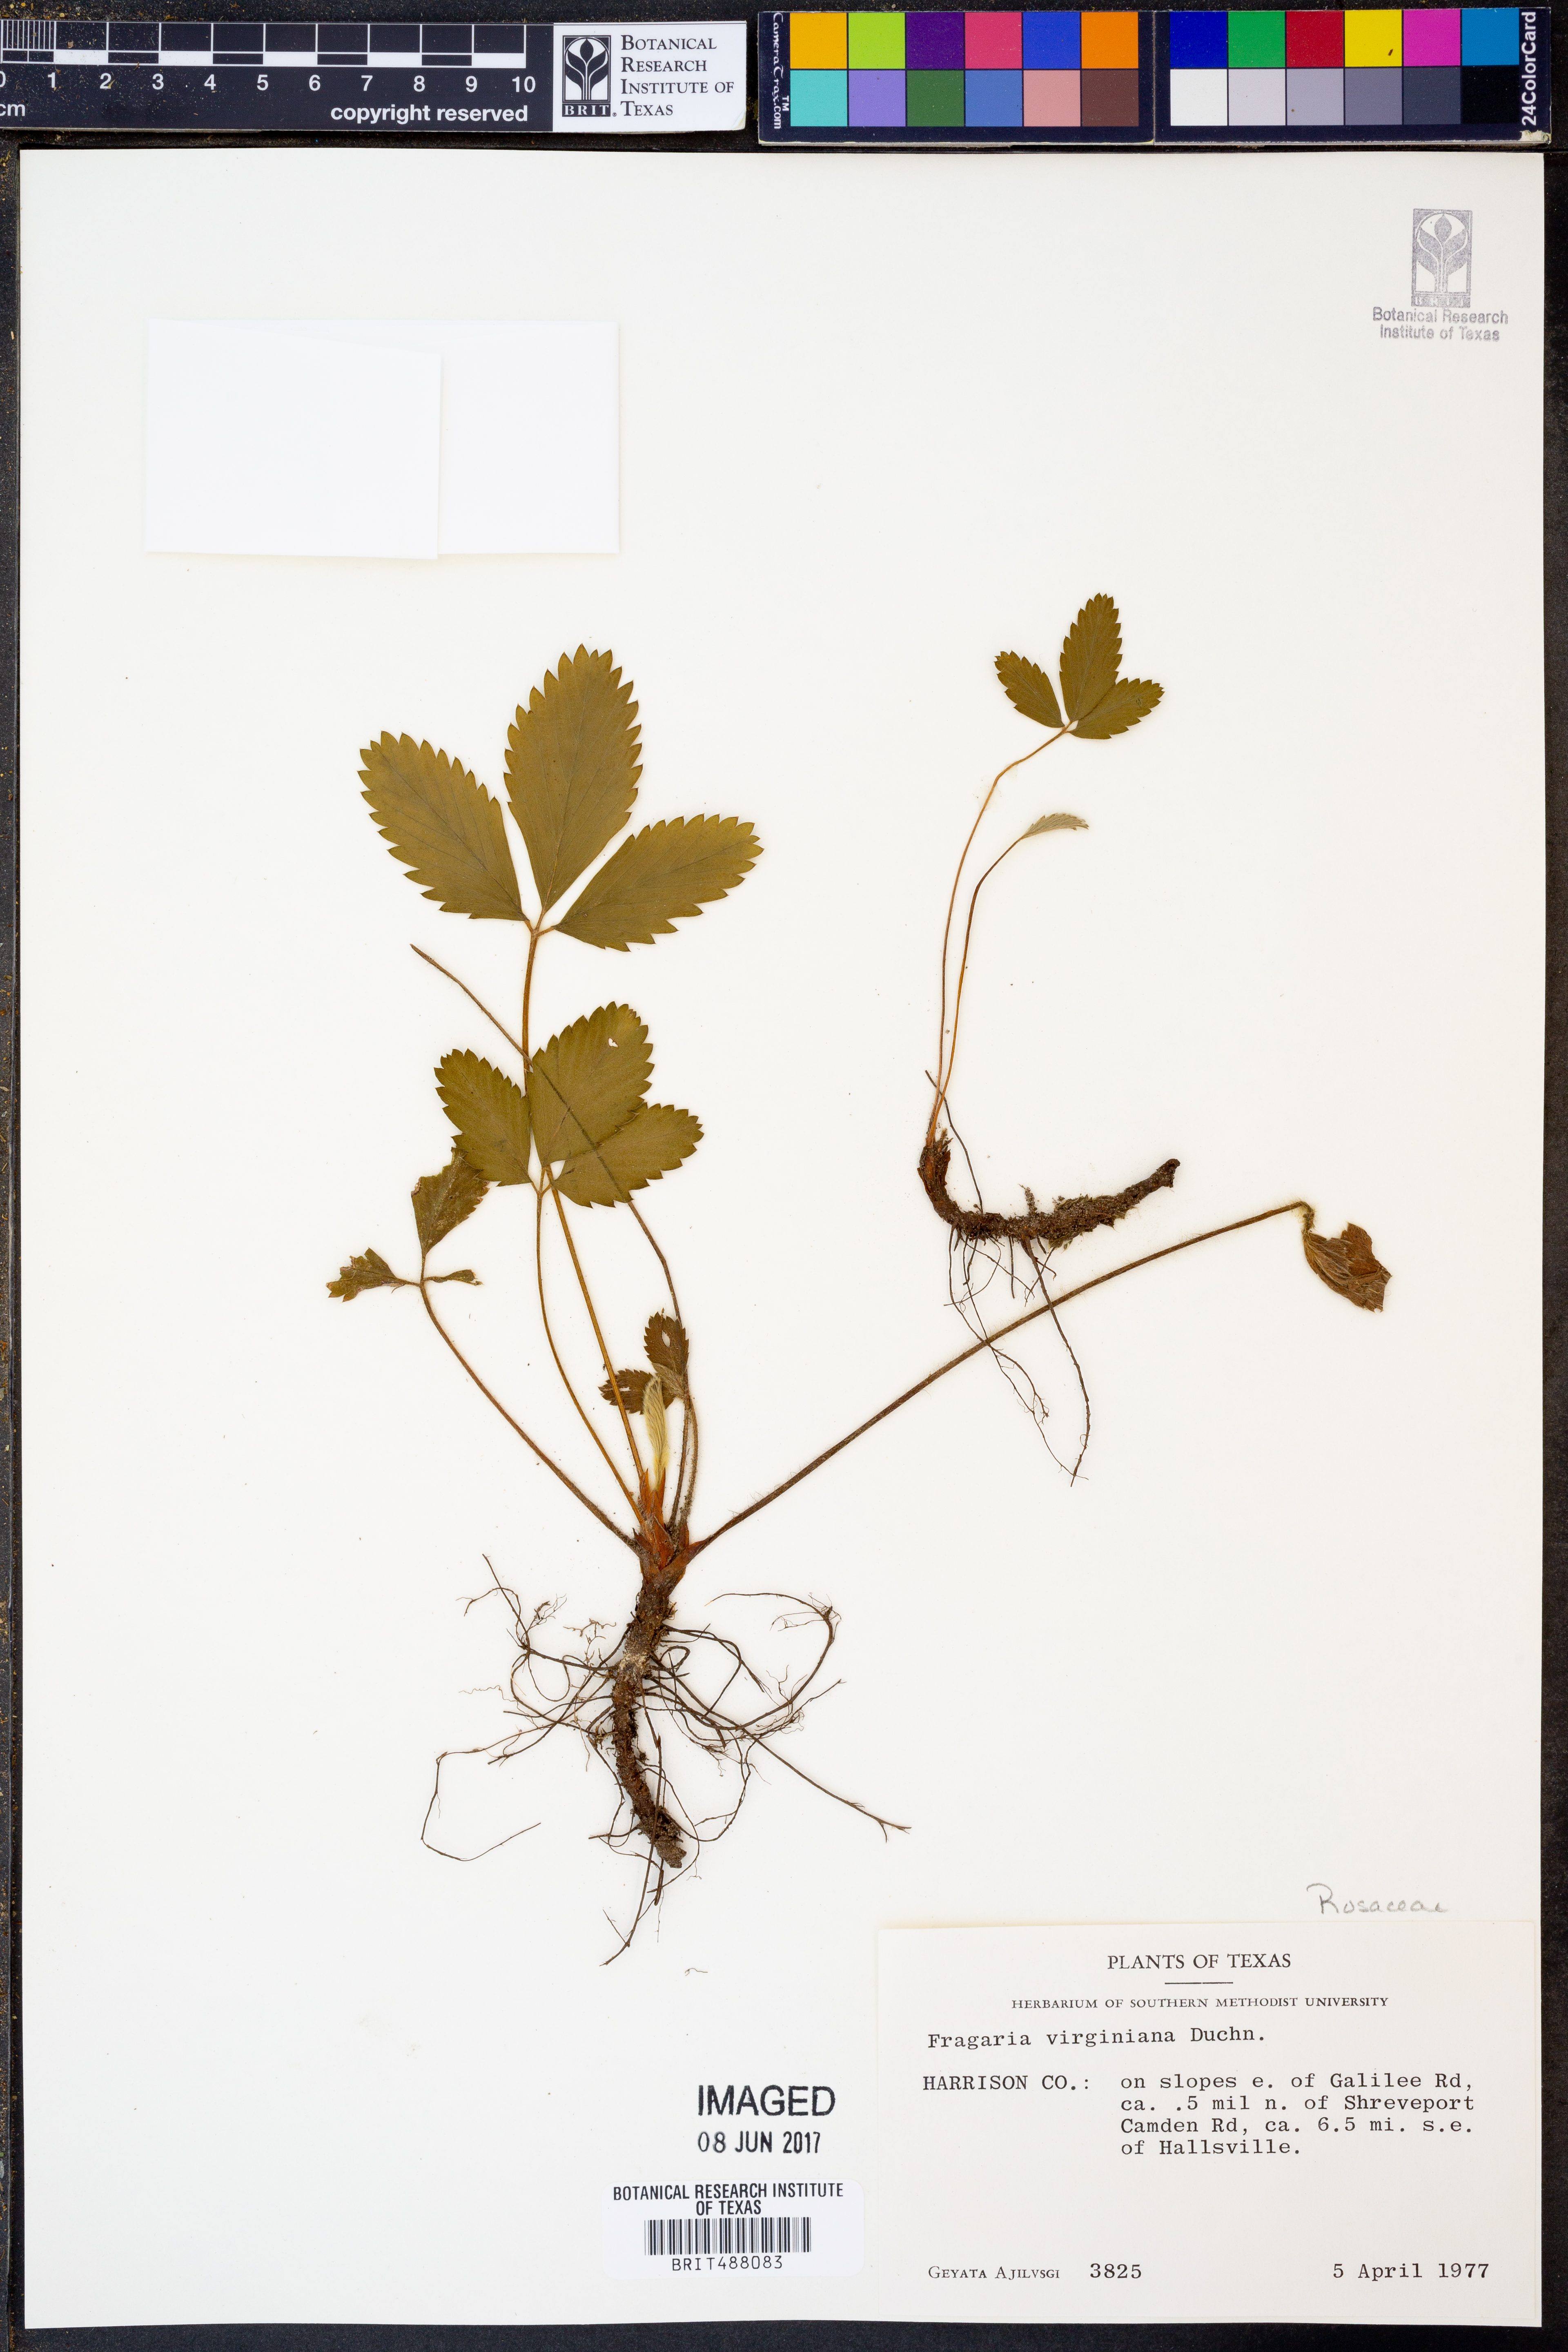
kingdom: Plantae
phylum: Tracheophyta
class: Magnoliopsida
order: Rosales
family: Rosaceae
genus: Fragaria
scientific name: Fragaria virginiana
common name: Thickleaved wild strawberry
